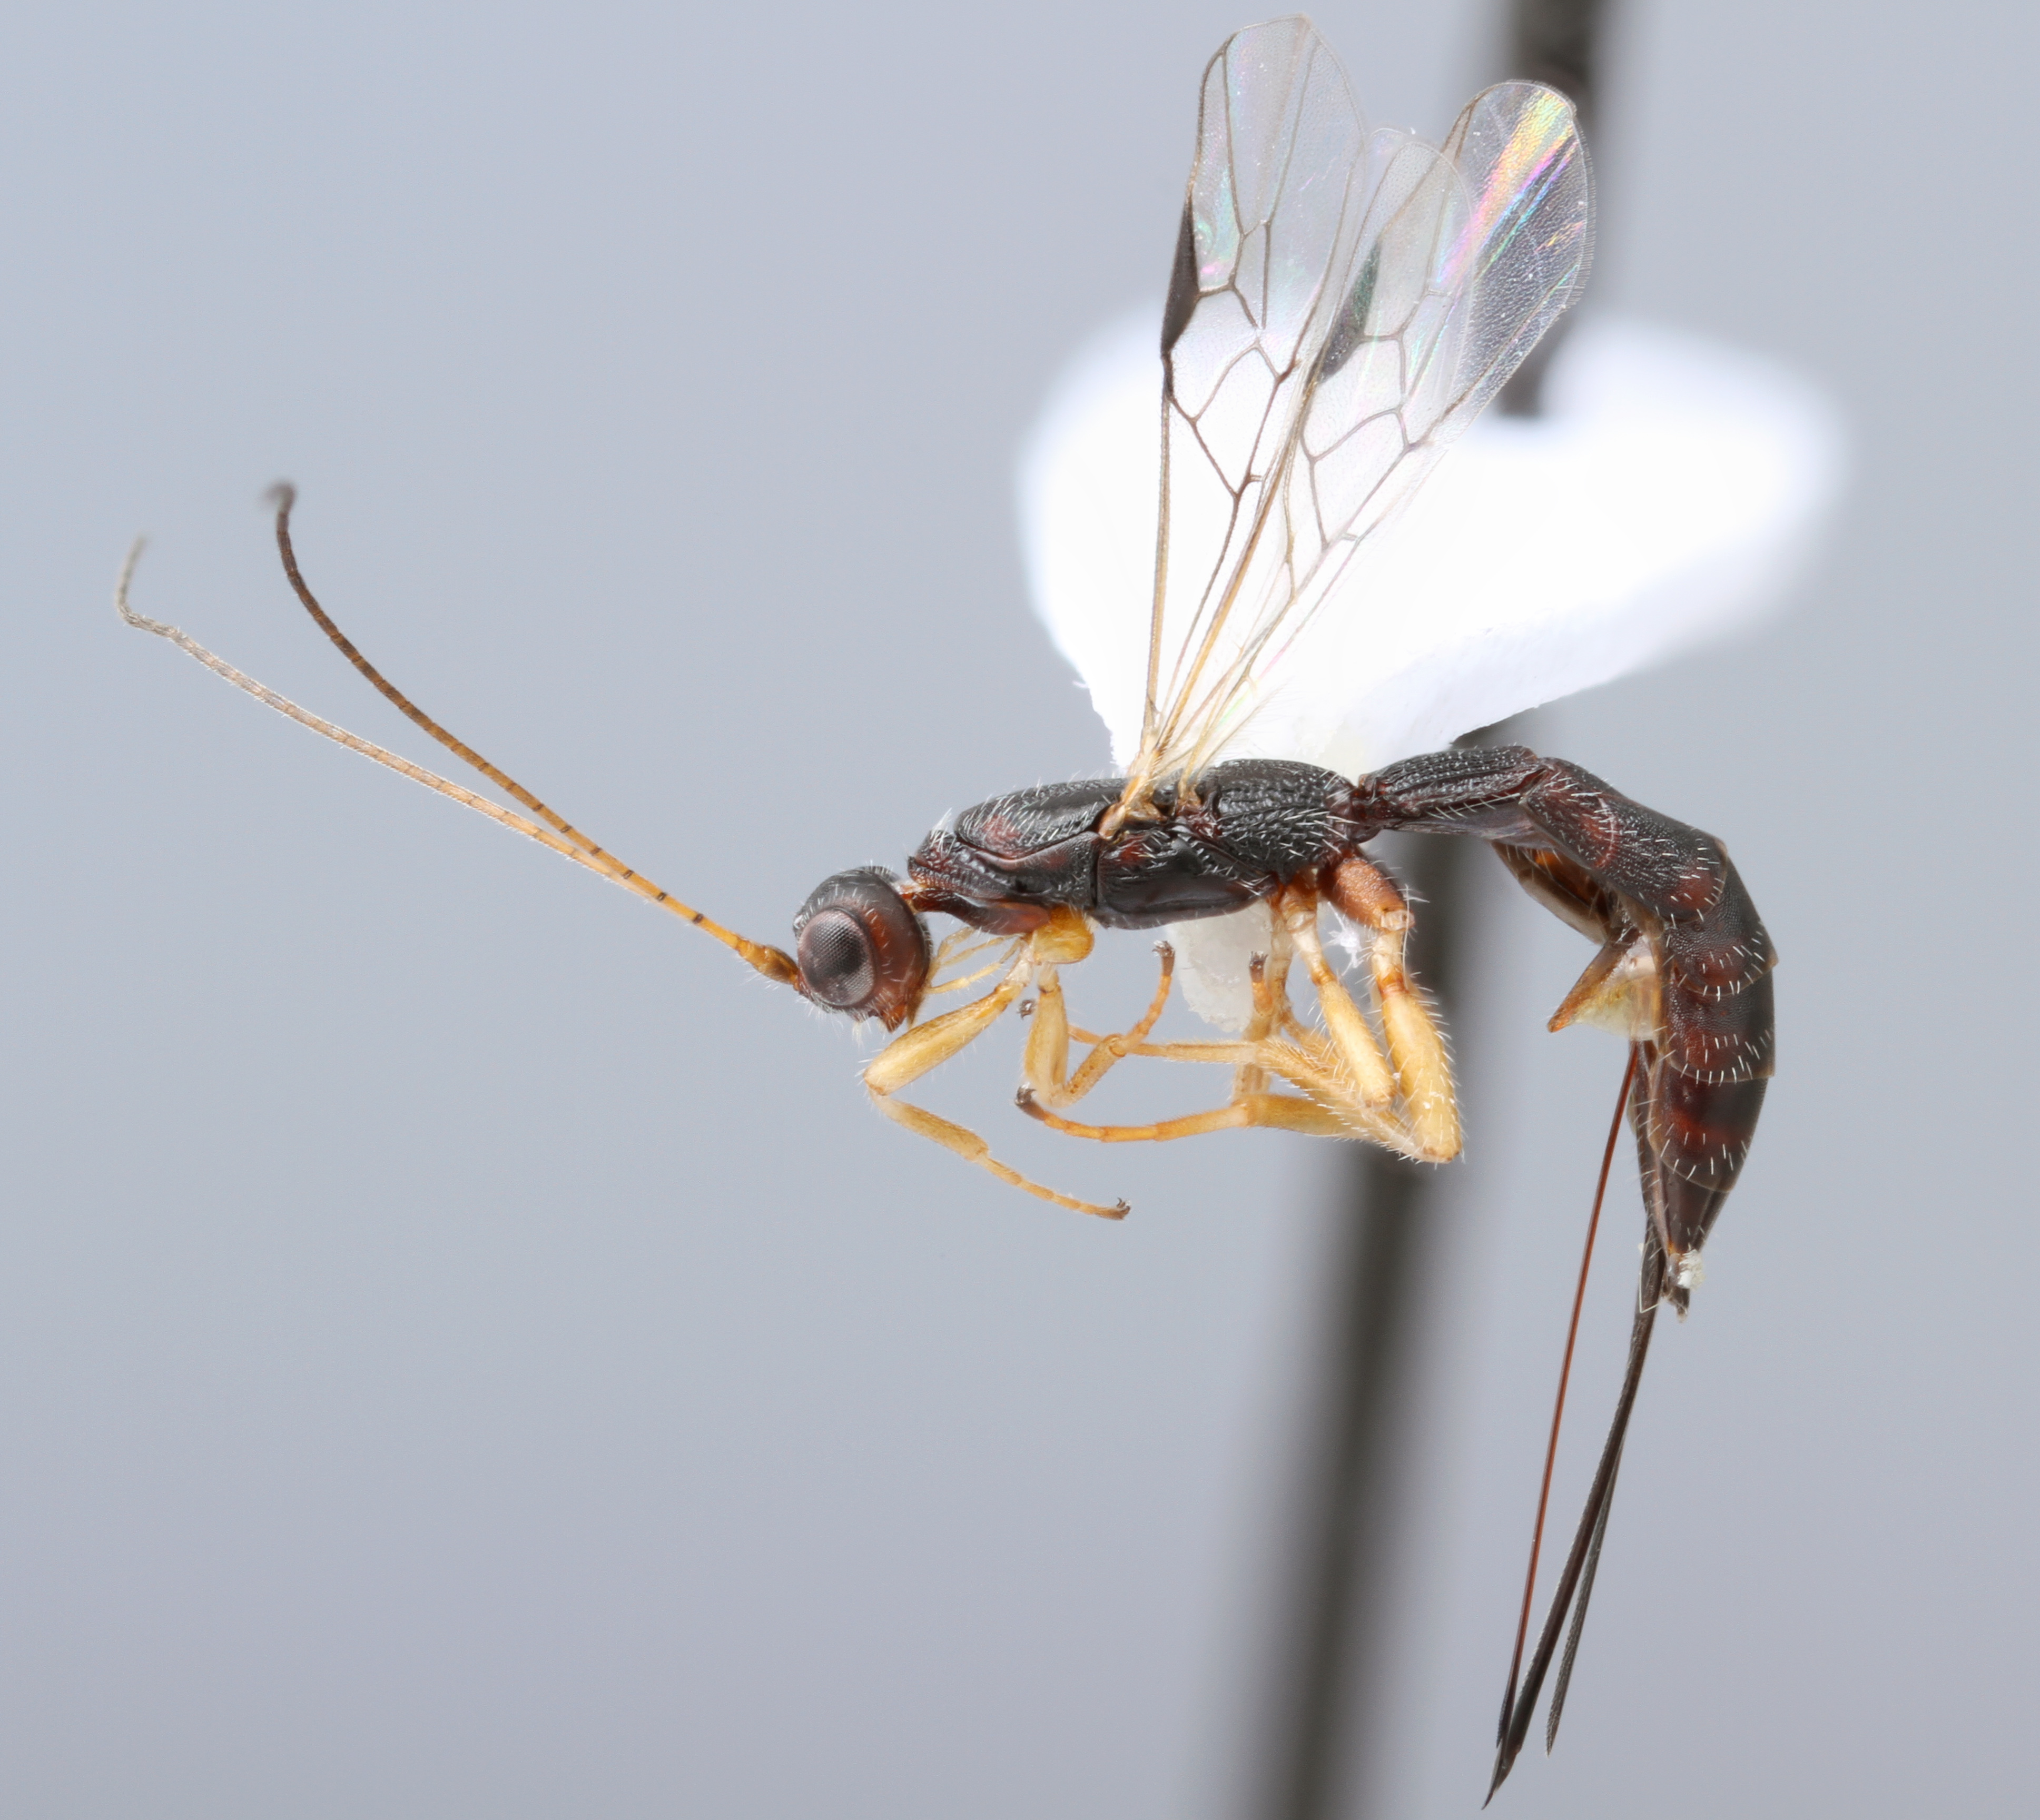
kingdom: Animalia
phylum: Arthropoda
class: Insecta
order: Hymenoptera
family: Braconidae
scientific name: Braconidae
